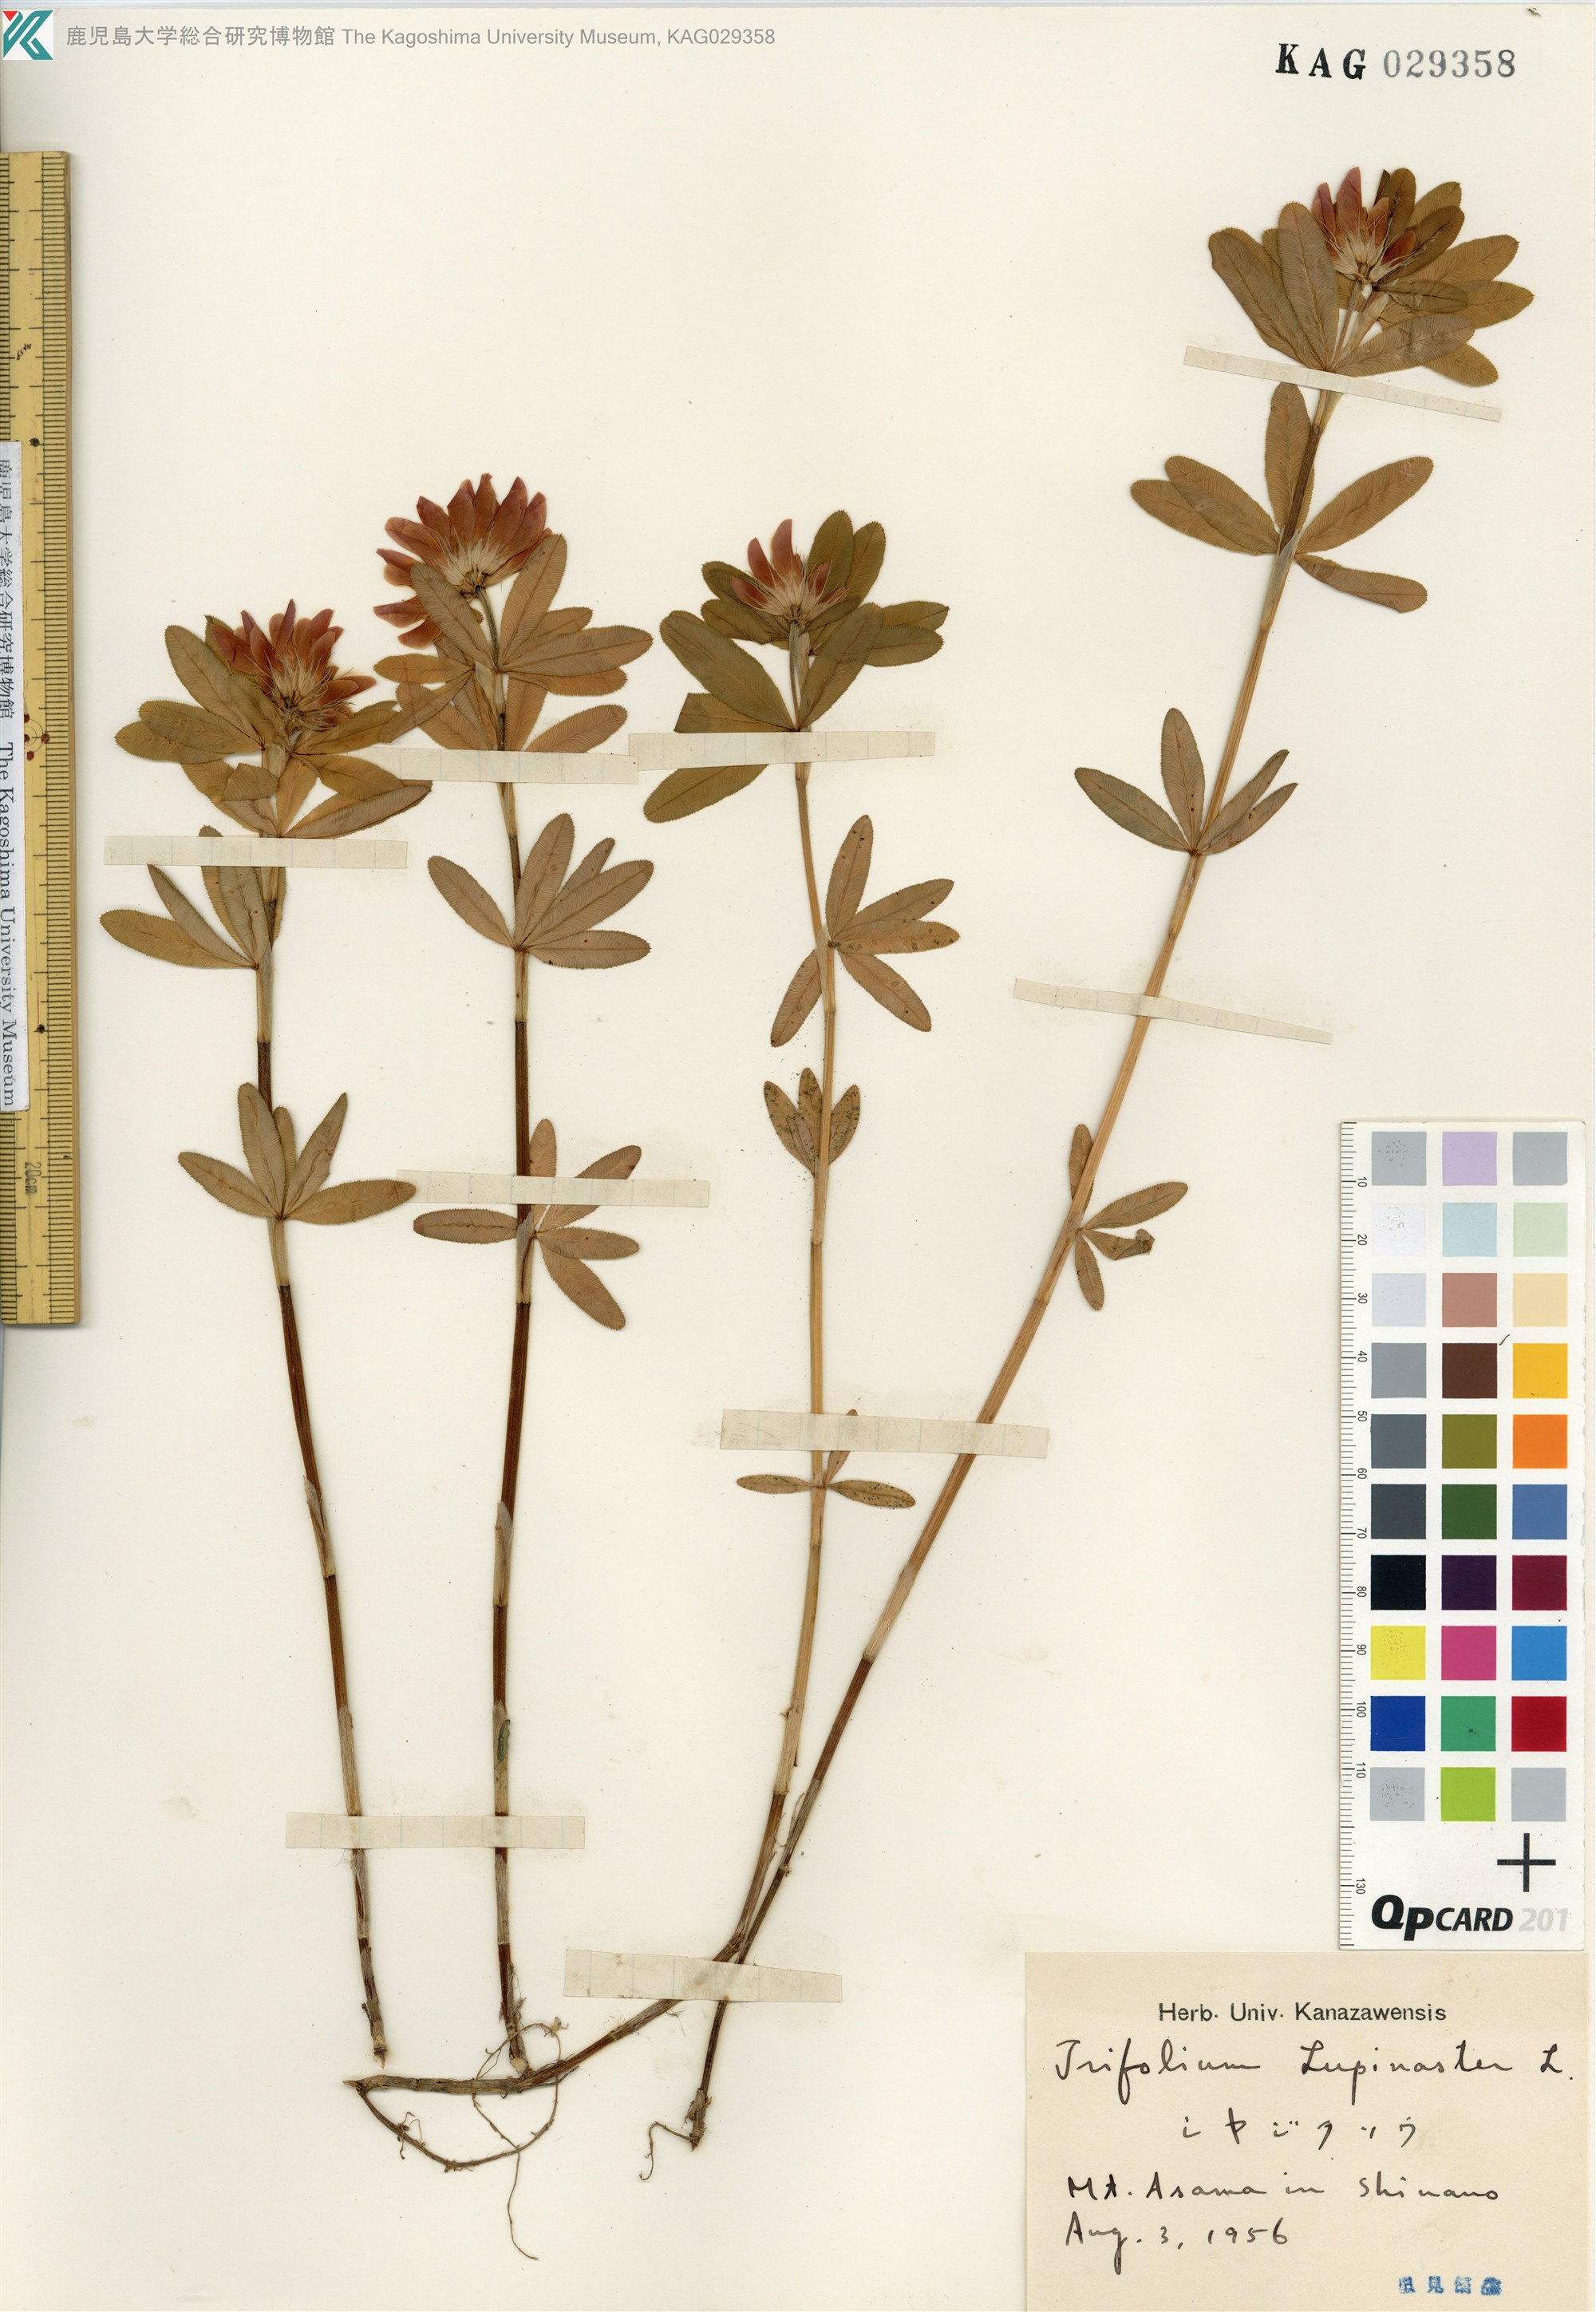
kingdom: Plantae
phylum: Tracheophyta
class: Magnoliopsida
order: Fabales
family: Fabaceae
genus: Trifolium
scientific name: Trifolium lupinaster
